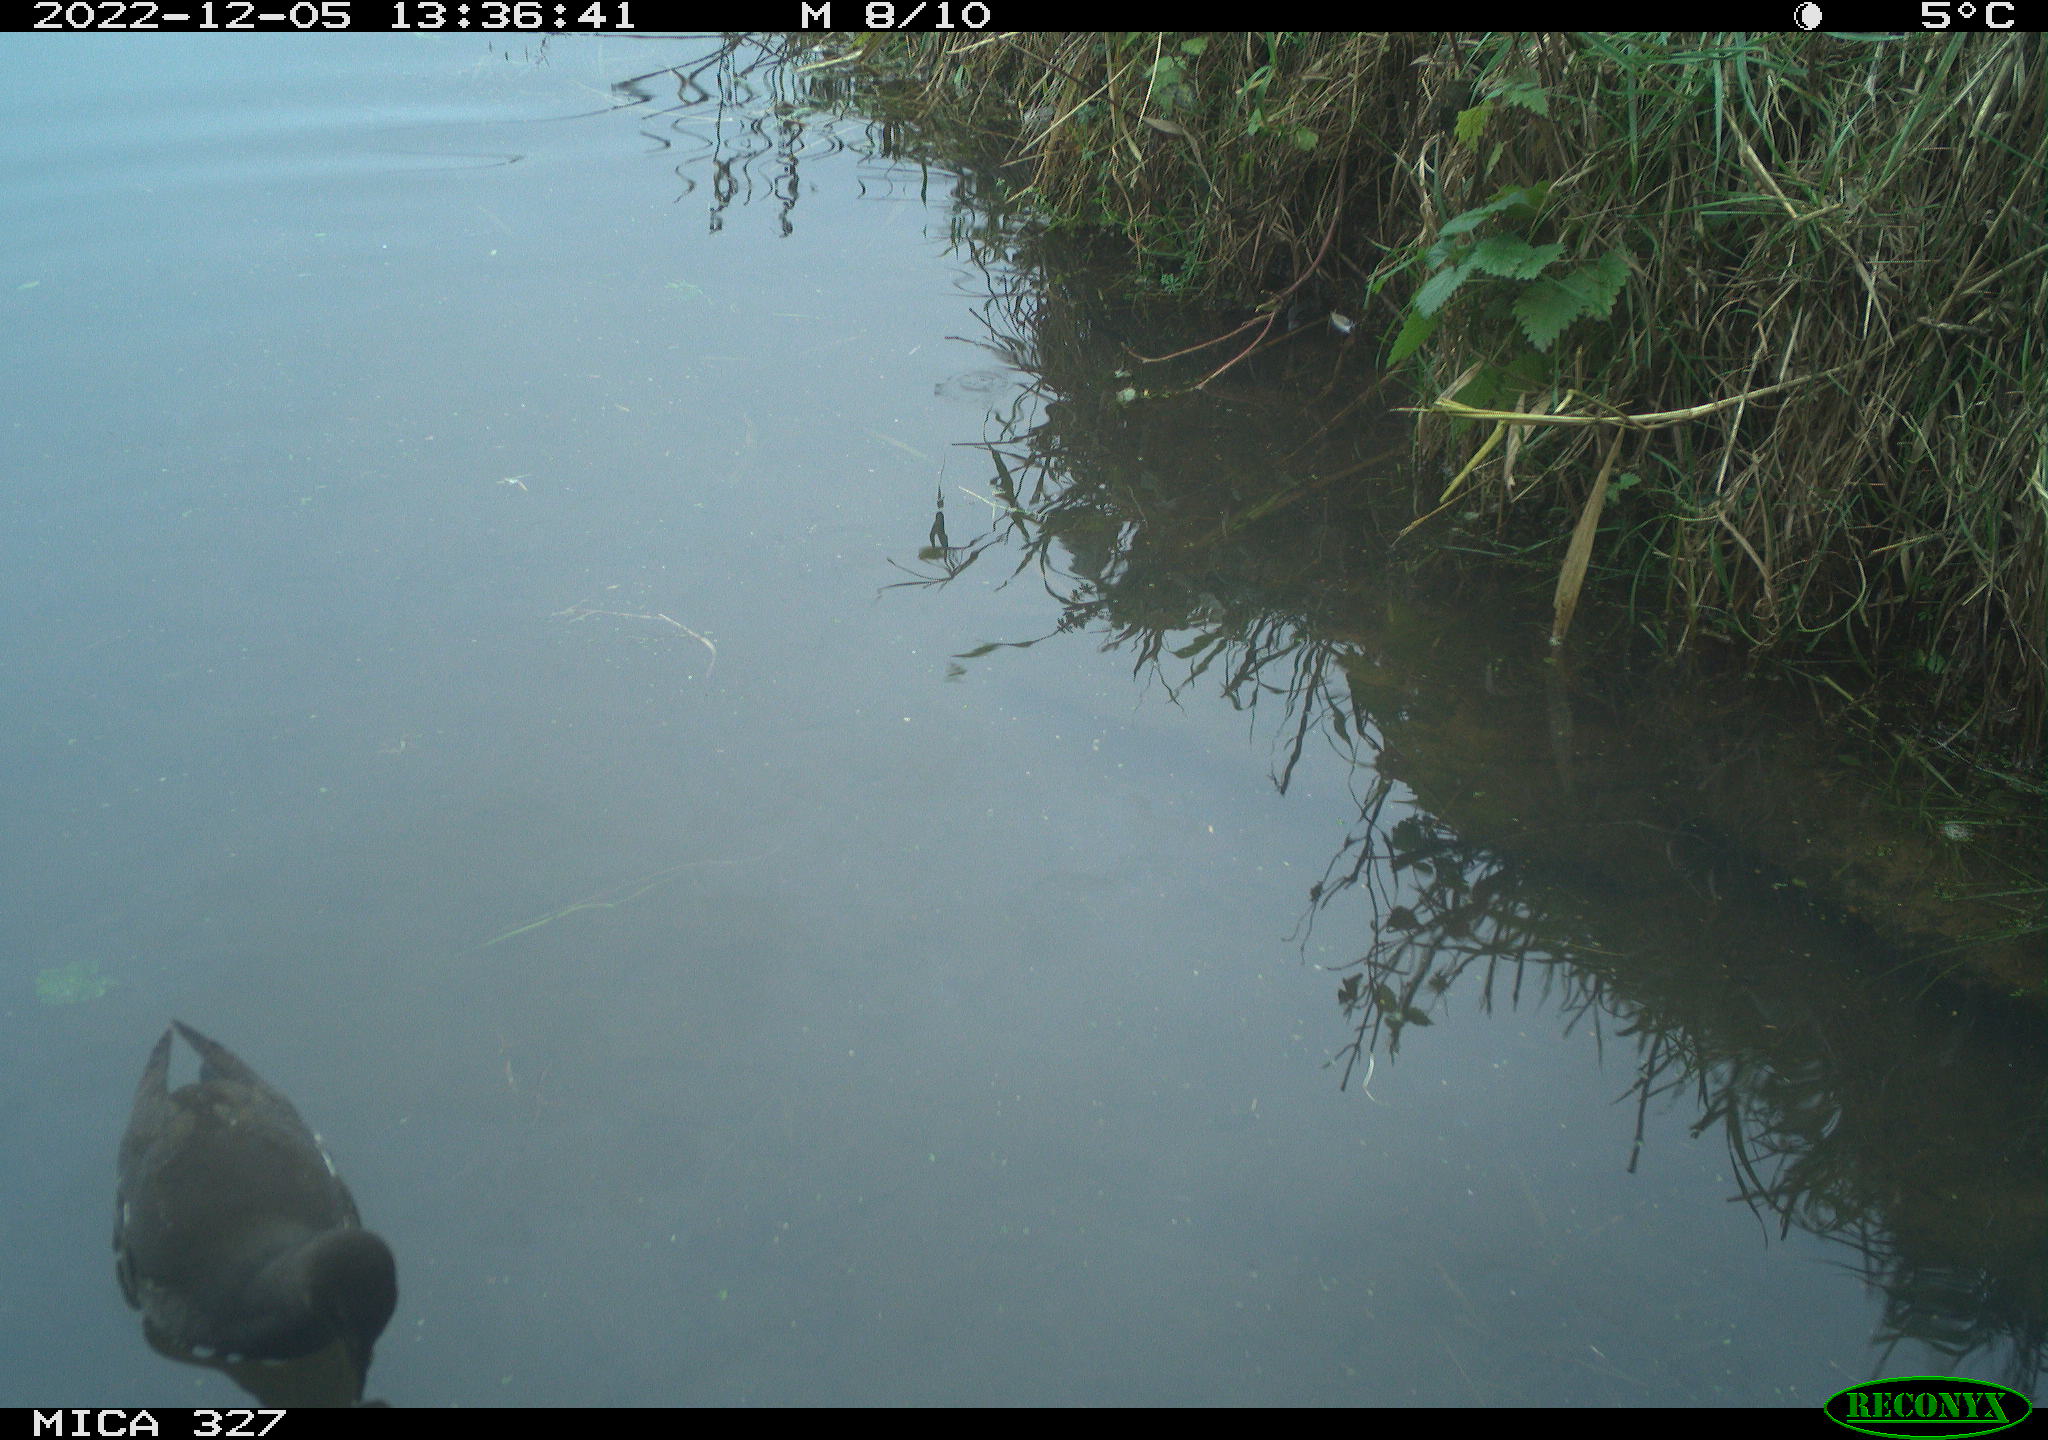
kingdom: Animalia
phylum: Chordata
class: Aves
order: Gruiformes
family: Rallidae
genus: Gallinula
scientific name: Gallinula chloropus
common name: Common moorhen
